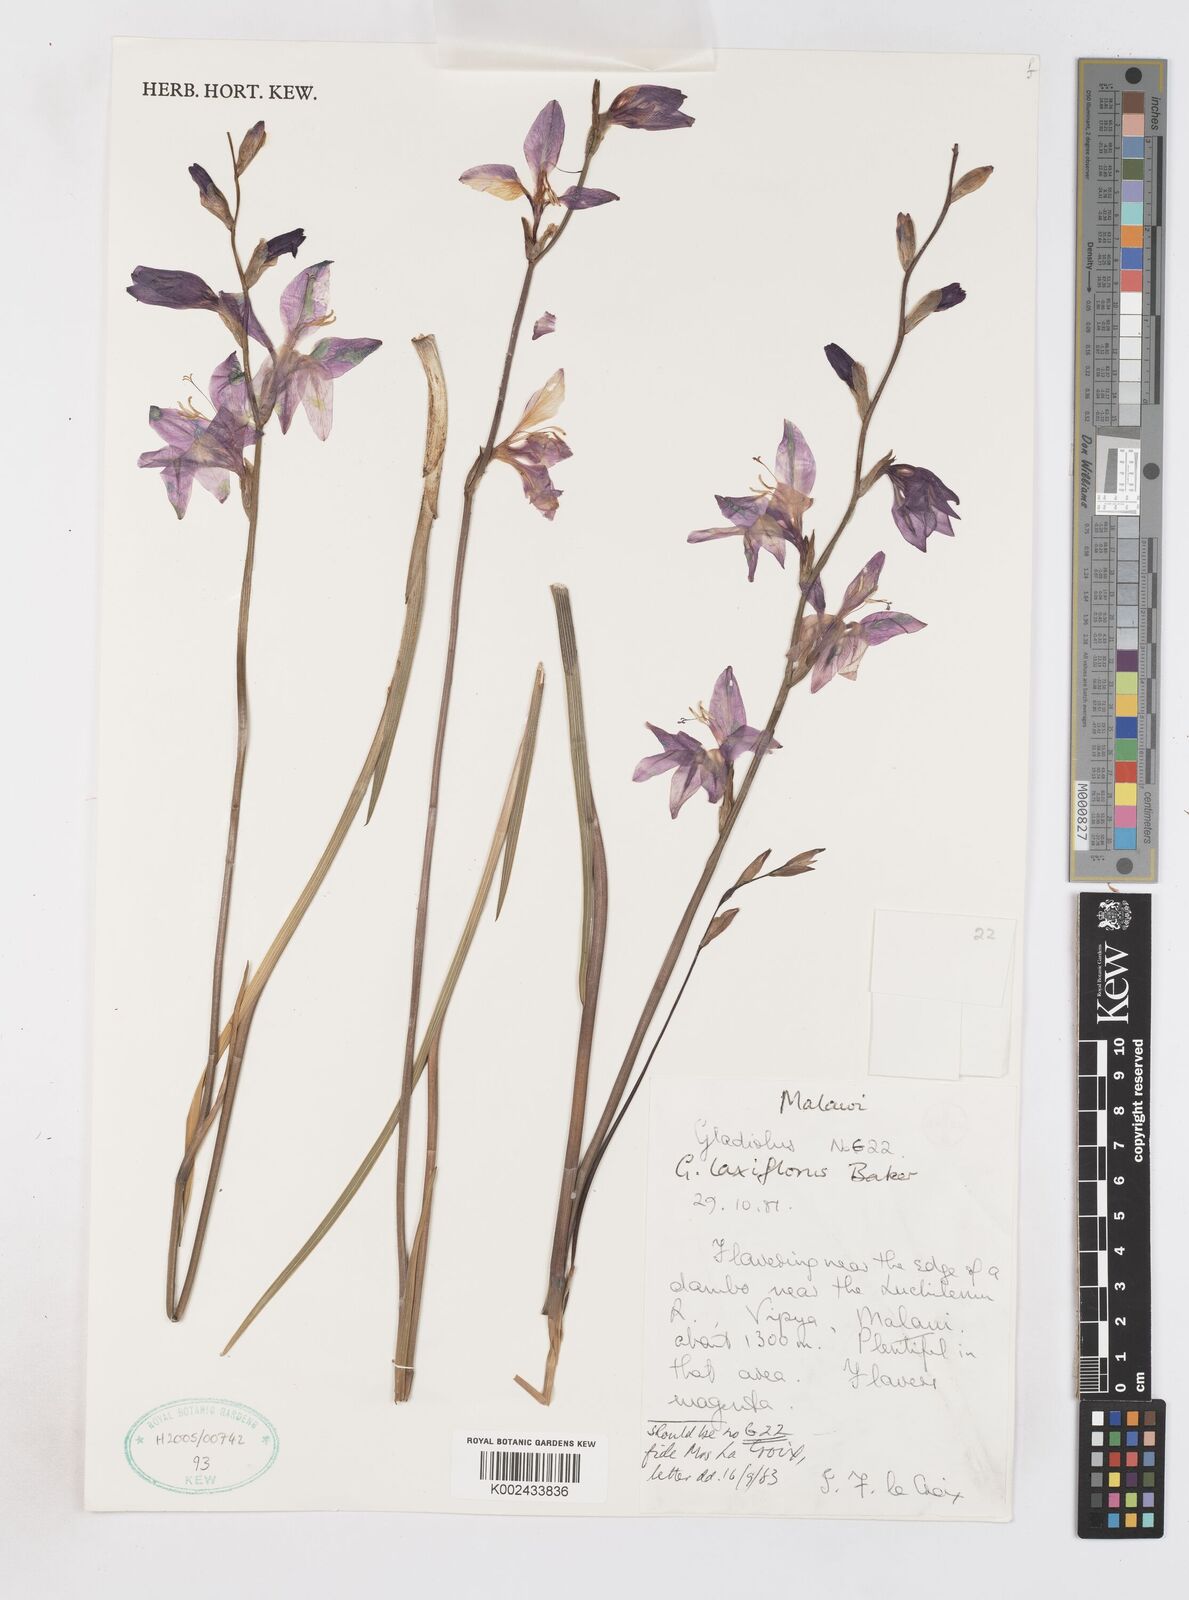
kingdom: Plantae
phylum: Tracheophyta
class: Liliopsida
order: Asparagales
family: Iridaceae
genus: Gladiolus
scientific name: Gladiolus laxiflorus
